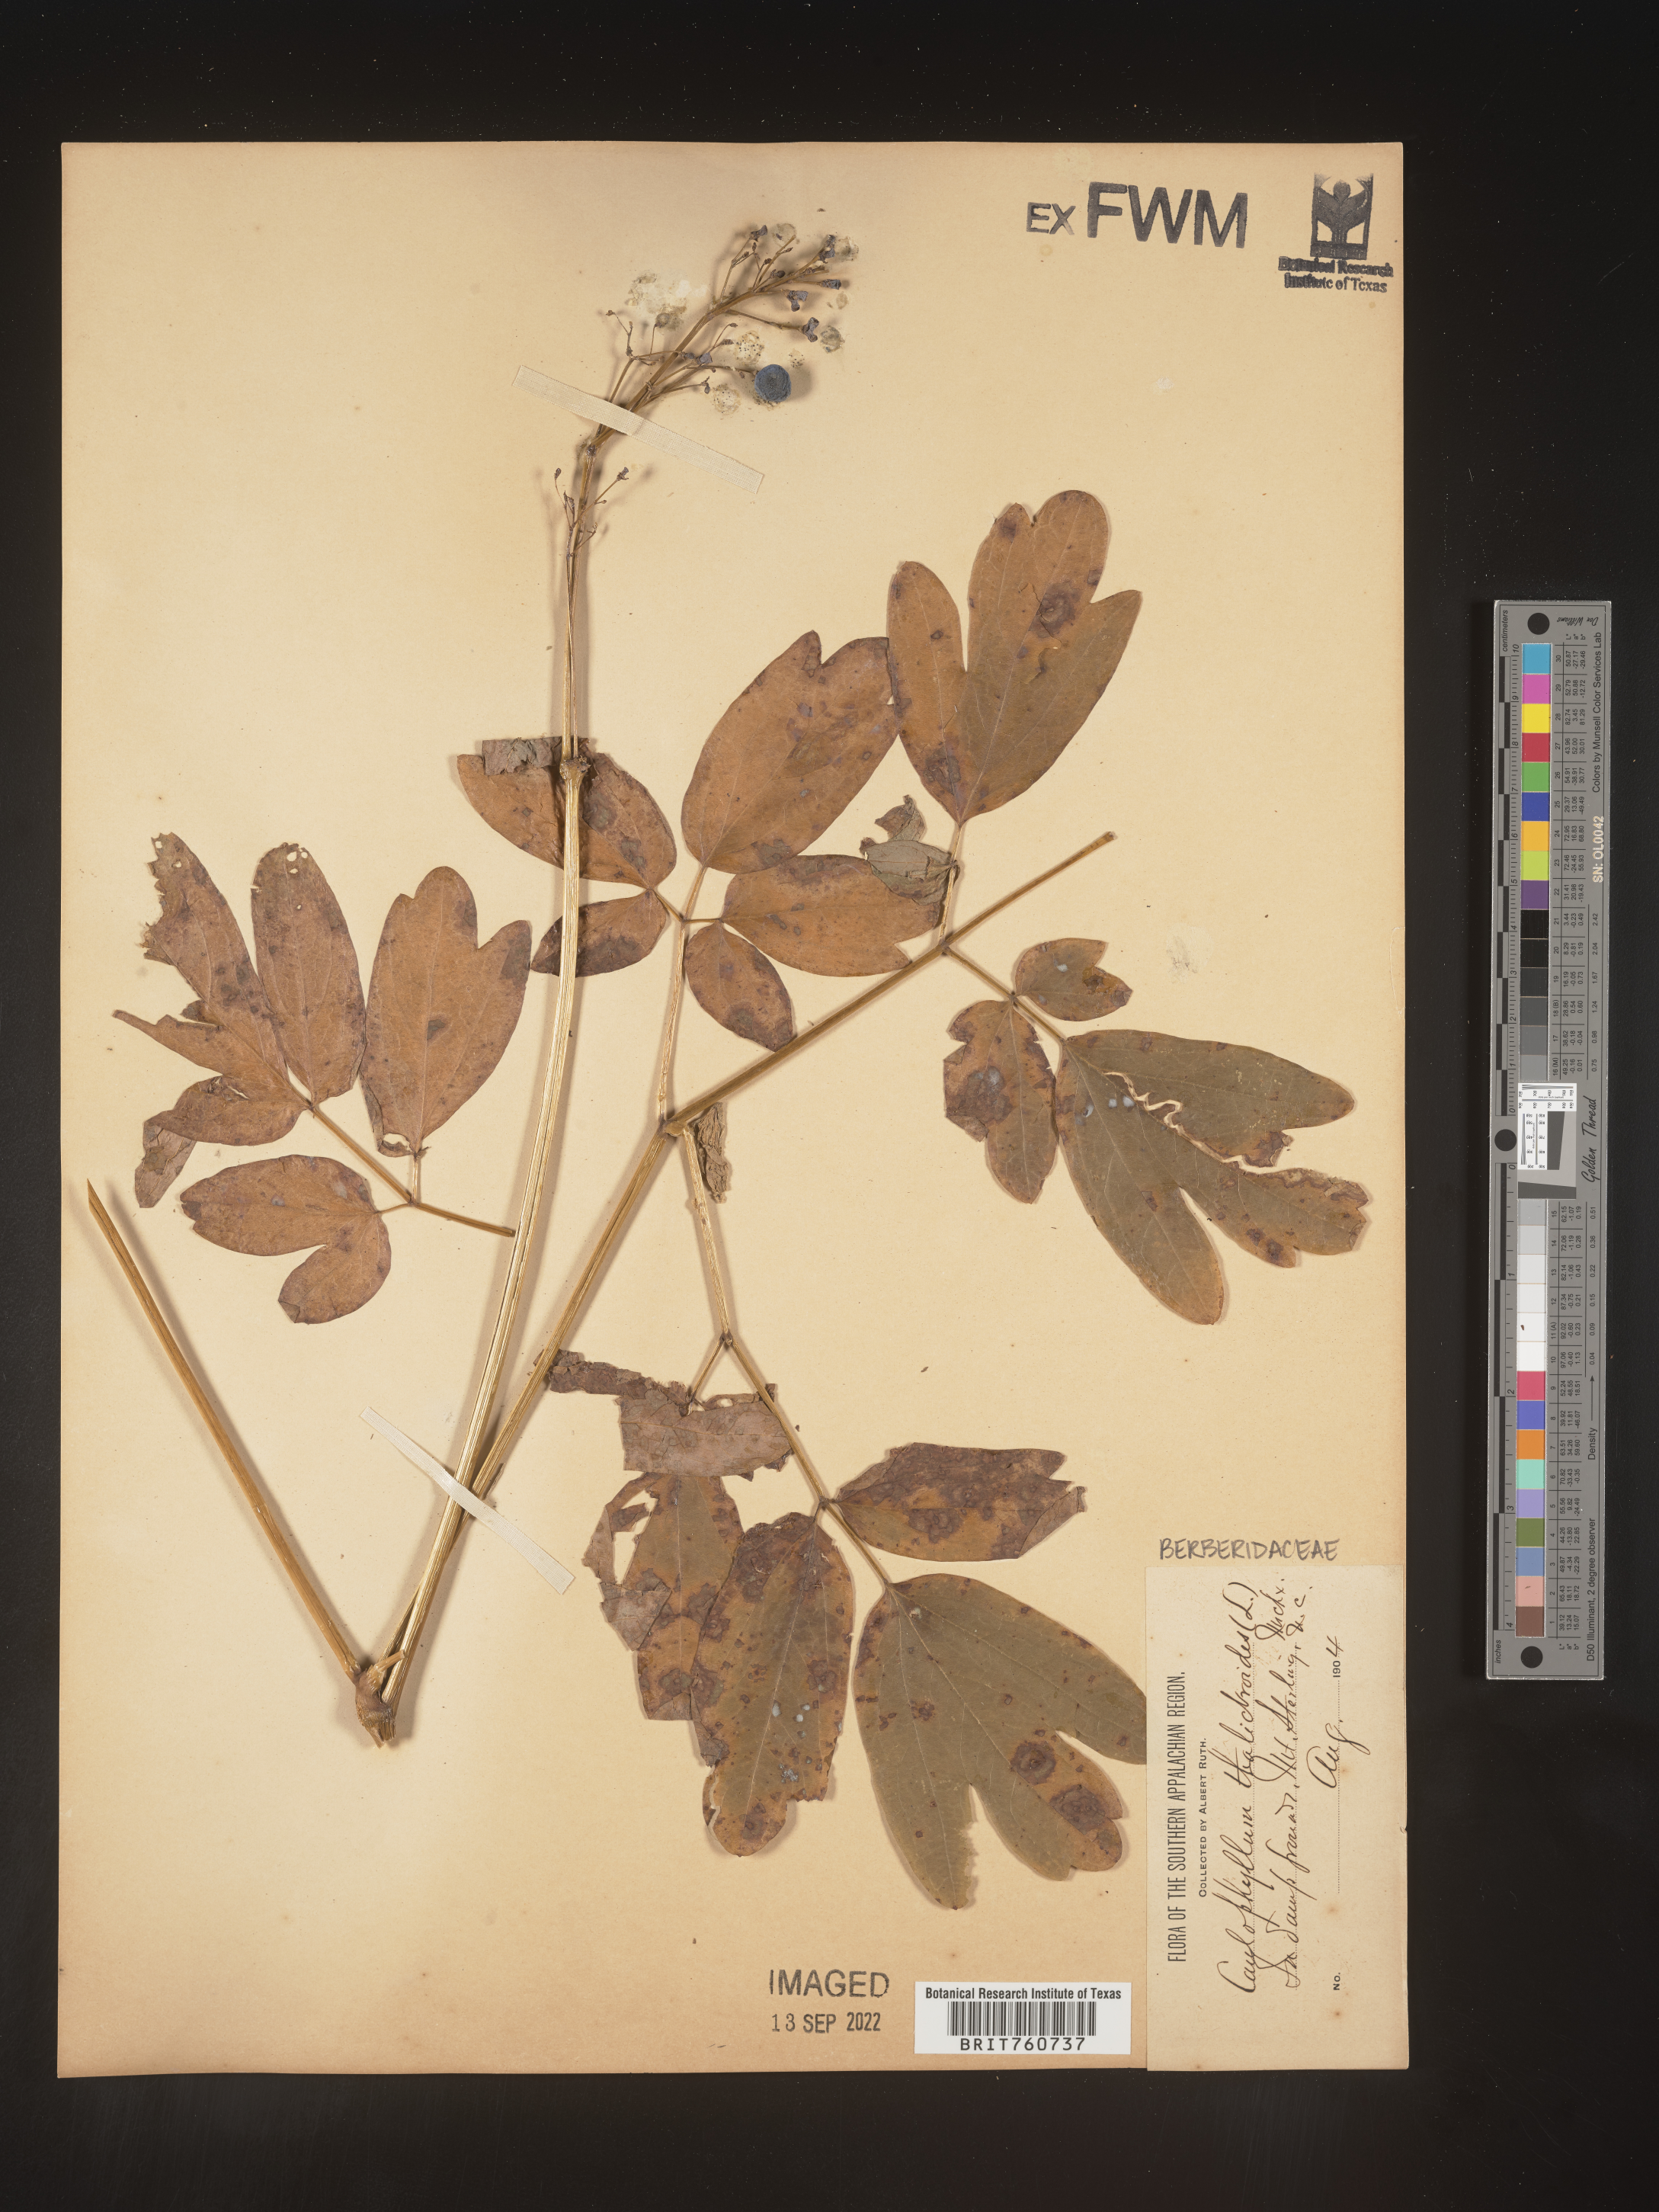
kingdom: Plantae
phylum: Tracheophyta
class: Magnoliopsida
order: Ranunculales
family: Berberidaceae
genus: Caulophyllum
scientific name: Caulophyllum thalictroides
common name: Blue cohosh
